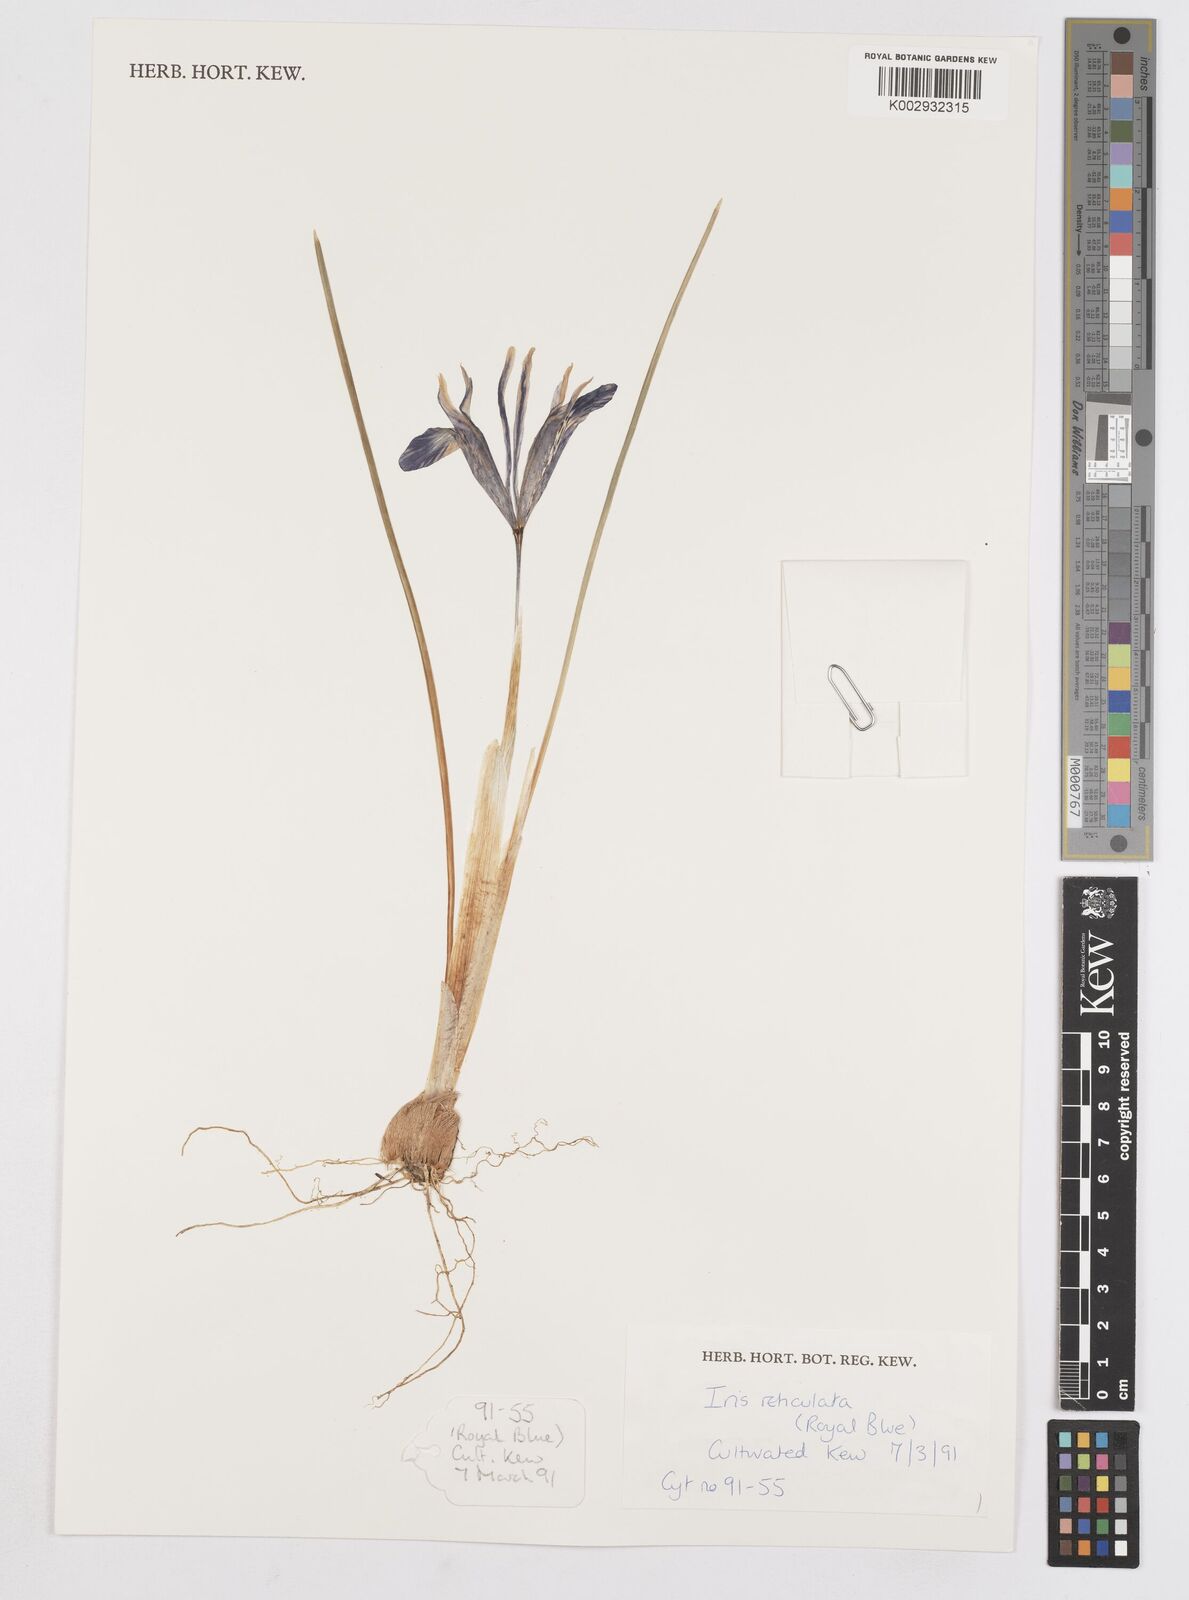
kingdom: Plantae
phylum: Tracheophyta
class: Liliopsida
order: Asparagales
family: Iridaceae
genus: Iris
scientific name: Iris reticulata
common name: Netted iris
